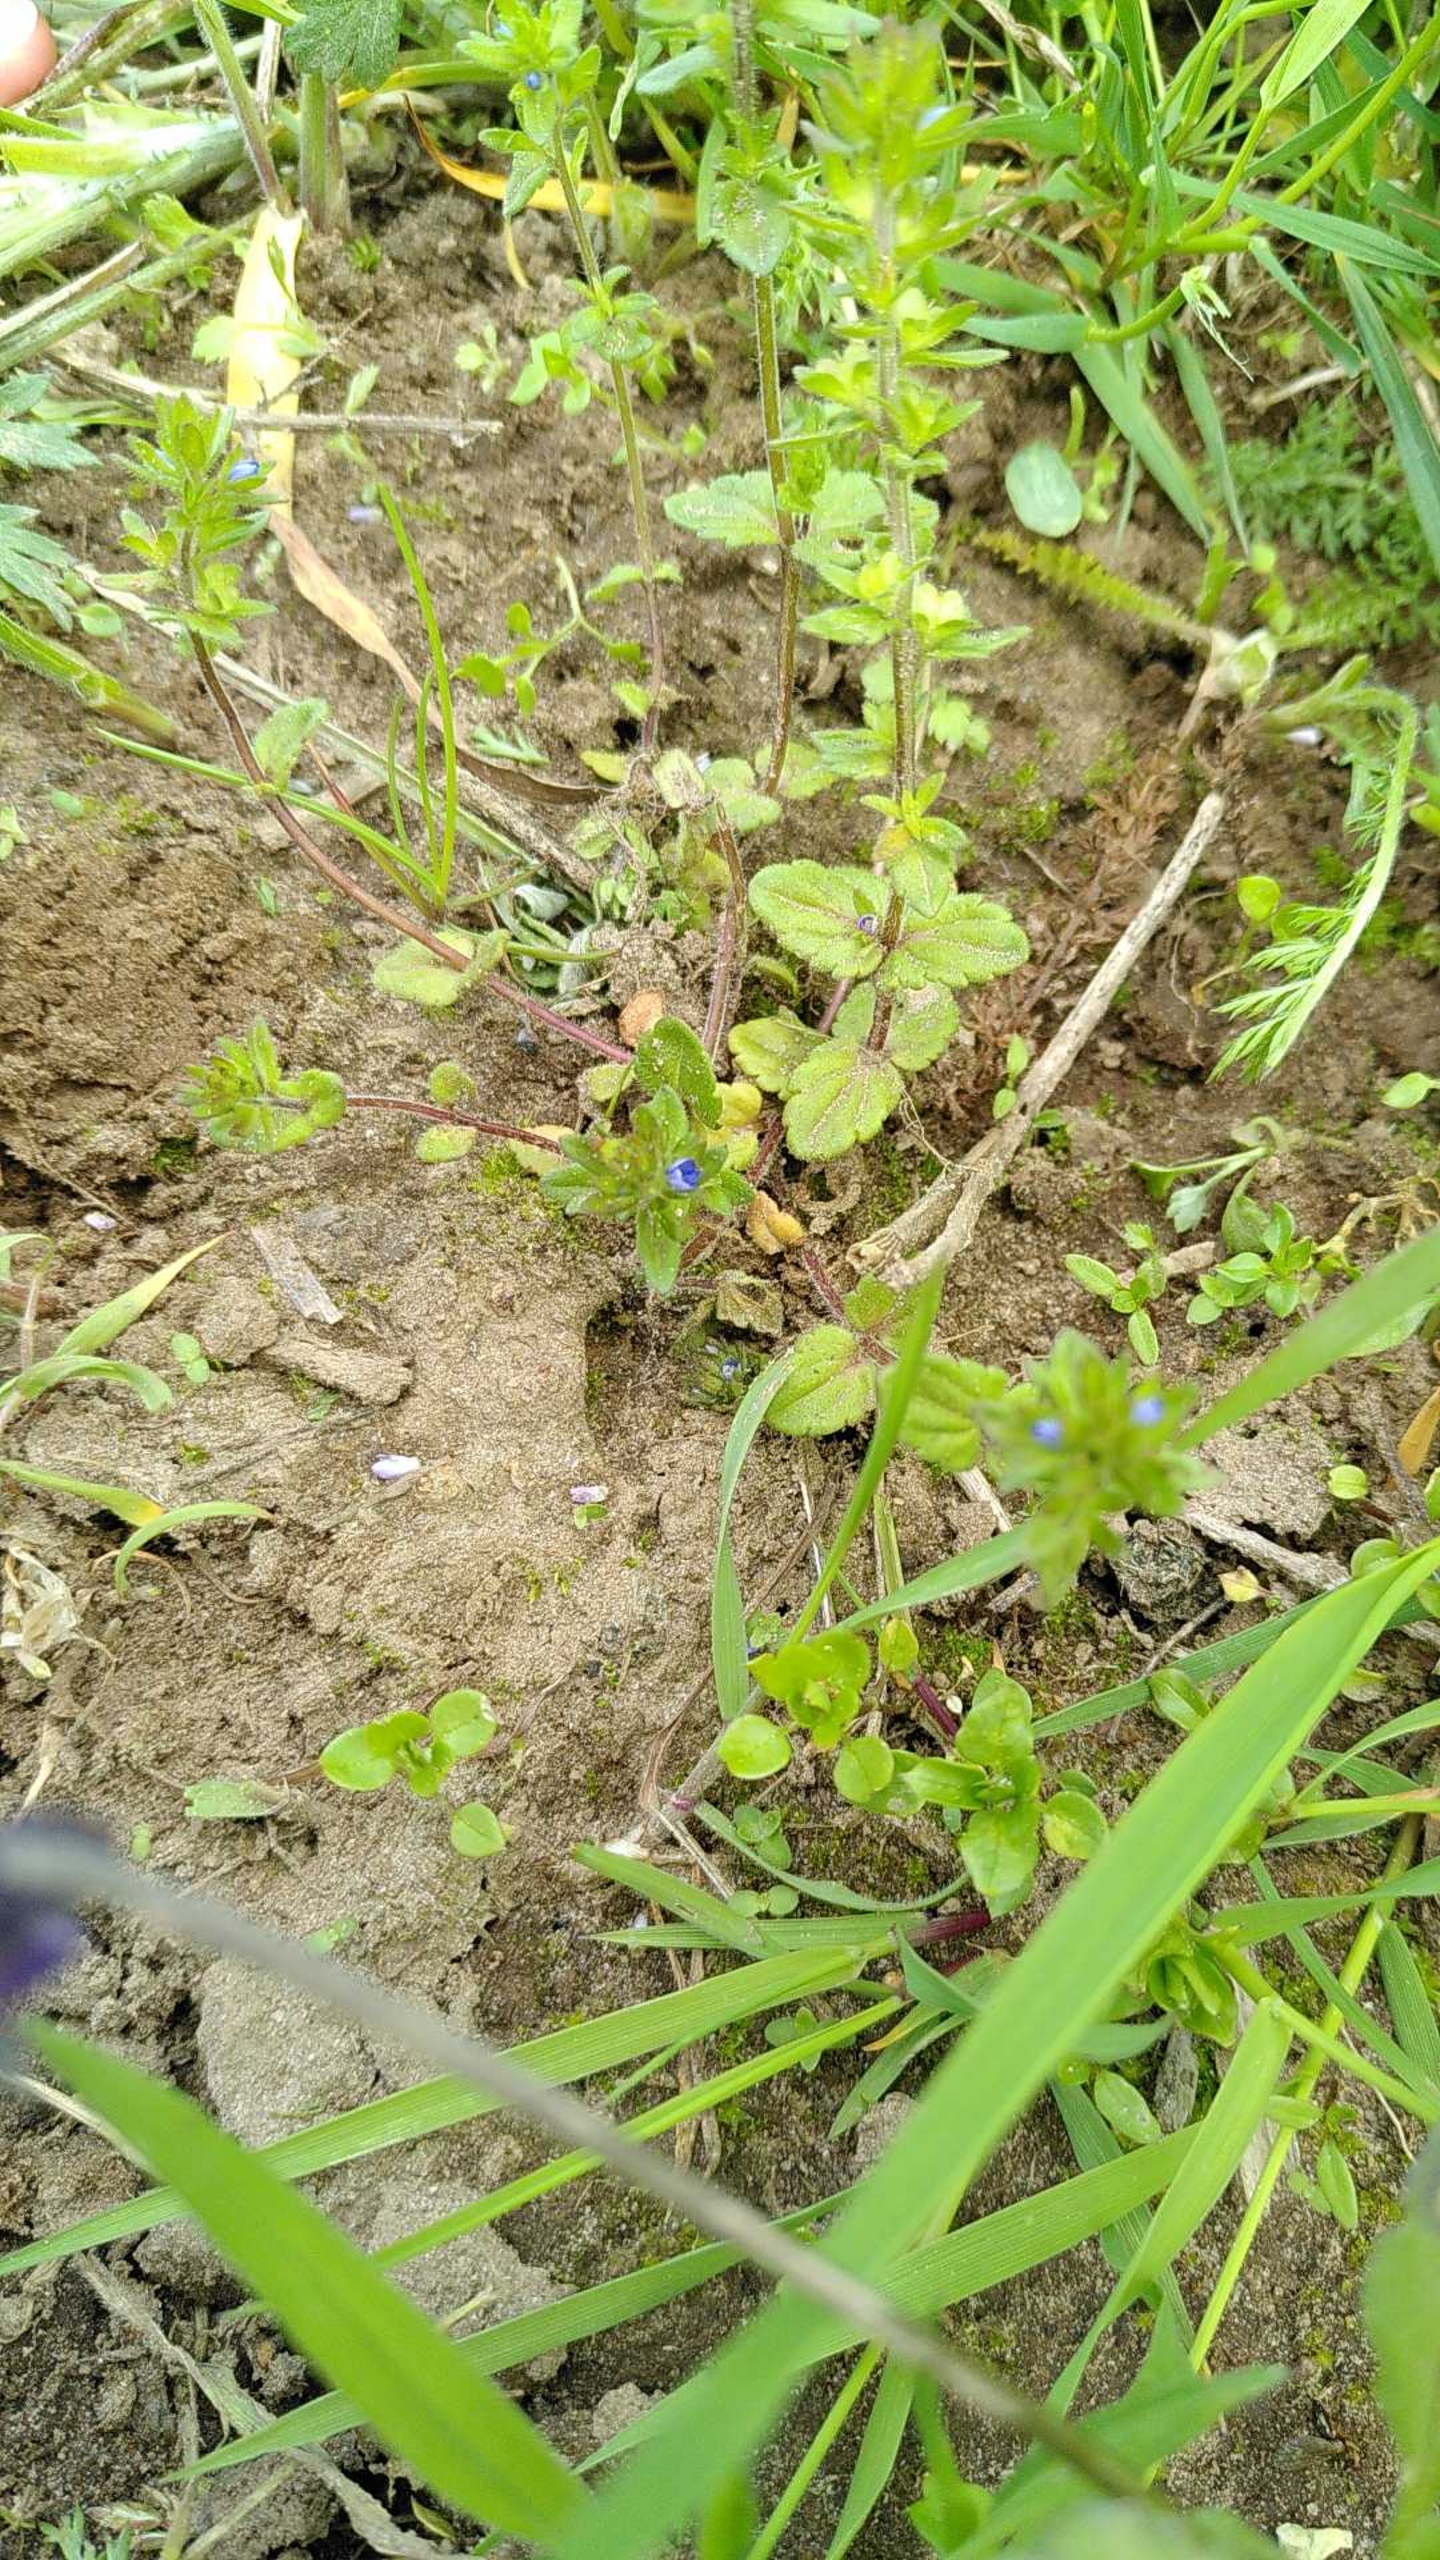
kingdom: Plantae
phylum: Tracheophyta
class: Magnoliopsida
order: Lamiales
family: Plantaginaceae
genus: Veronica
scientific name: Veronica arvensis
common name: Mark-ærenpris
